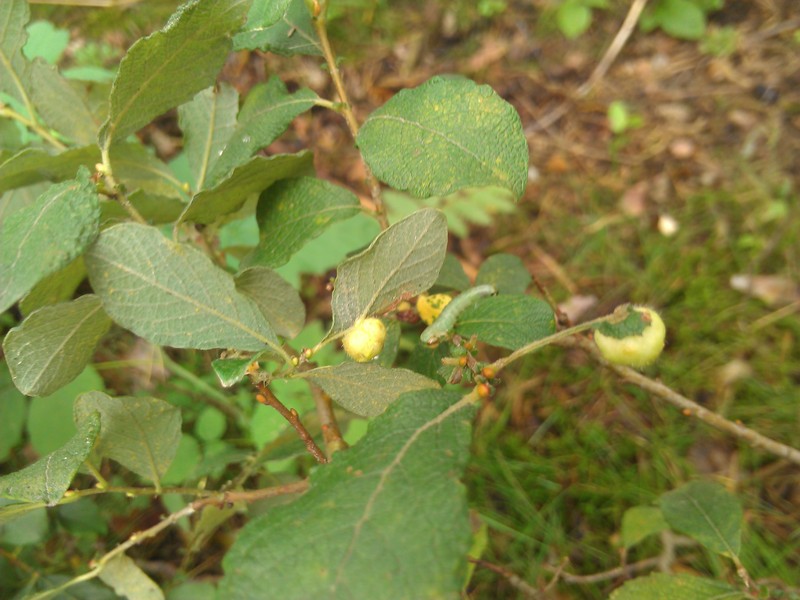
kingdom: Plantae
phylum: Tracheophyta
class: Magnoliopsida
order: Malpighiales
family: Salicaceae
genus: Salix
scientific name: Salix cinerea
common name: Common sallow
